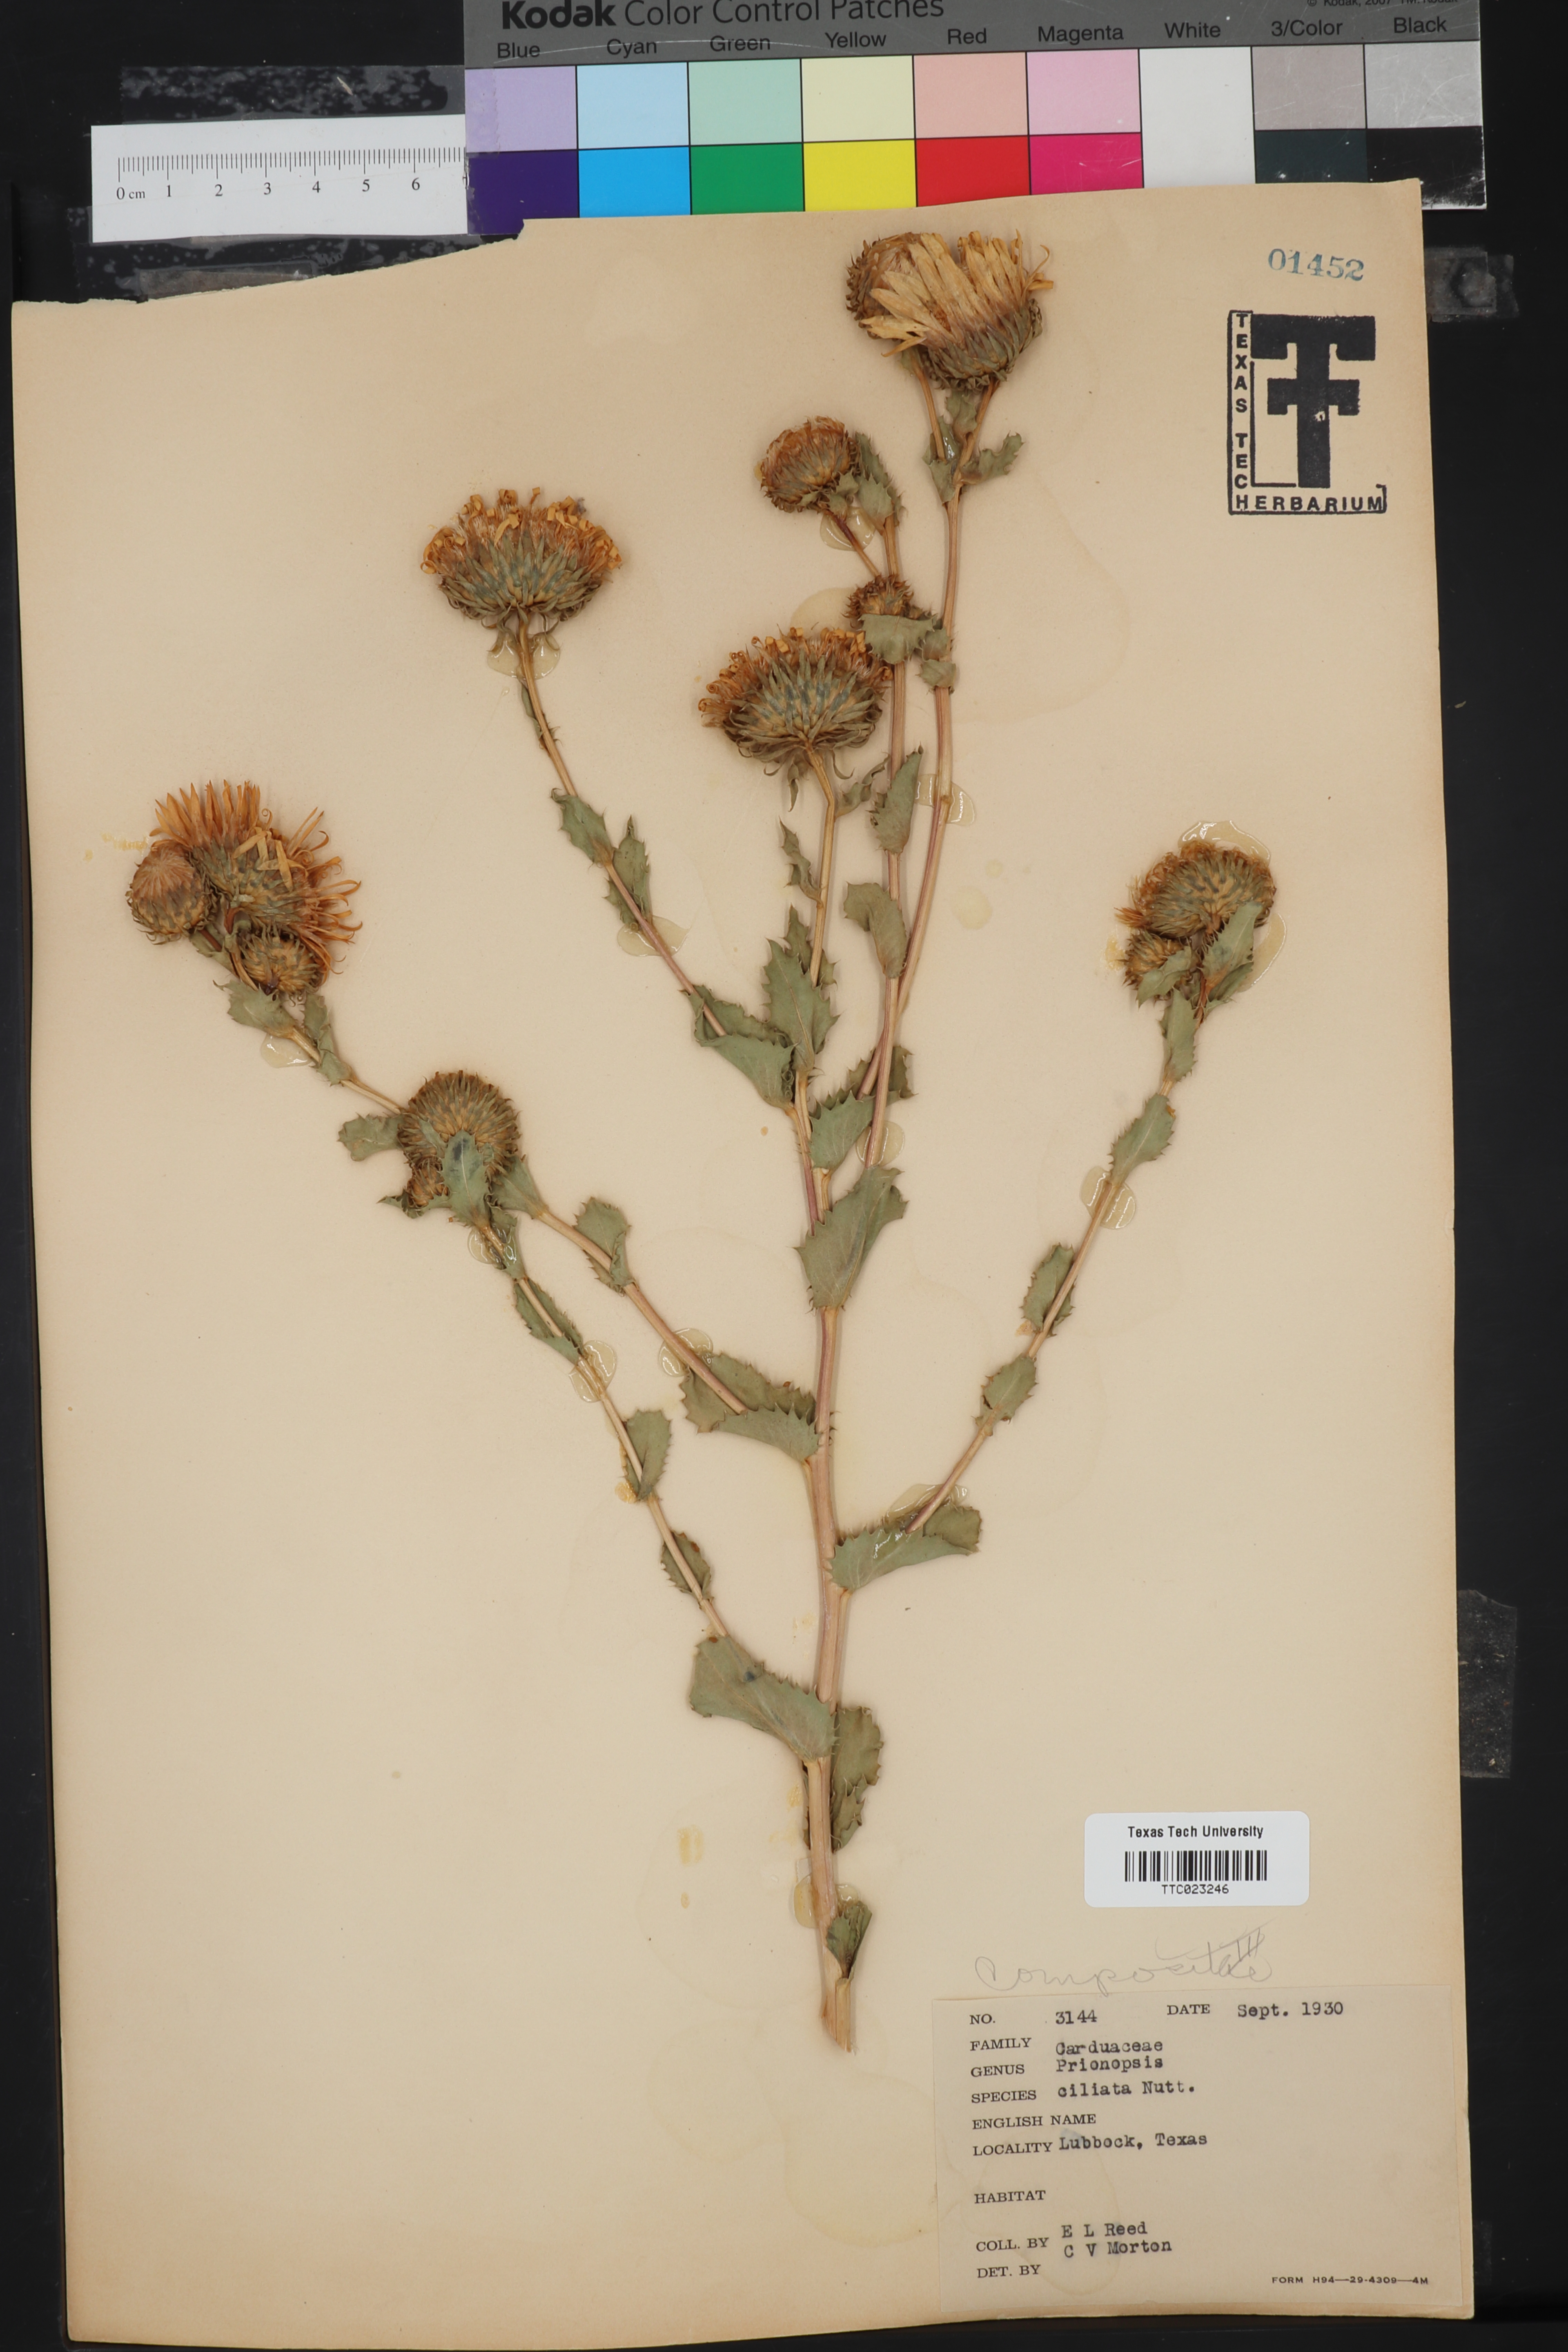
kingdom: Plantae
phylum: Tracheophyta
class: Magnoliopsida
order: Asterales
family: Asteraceae
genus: Grindelia
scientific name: Grindelia ciliata
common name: Goldenweed
